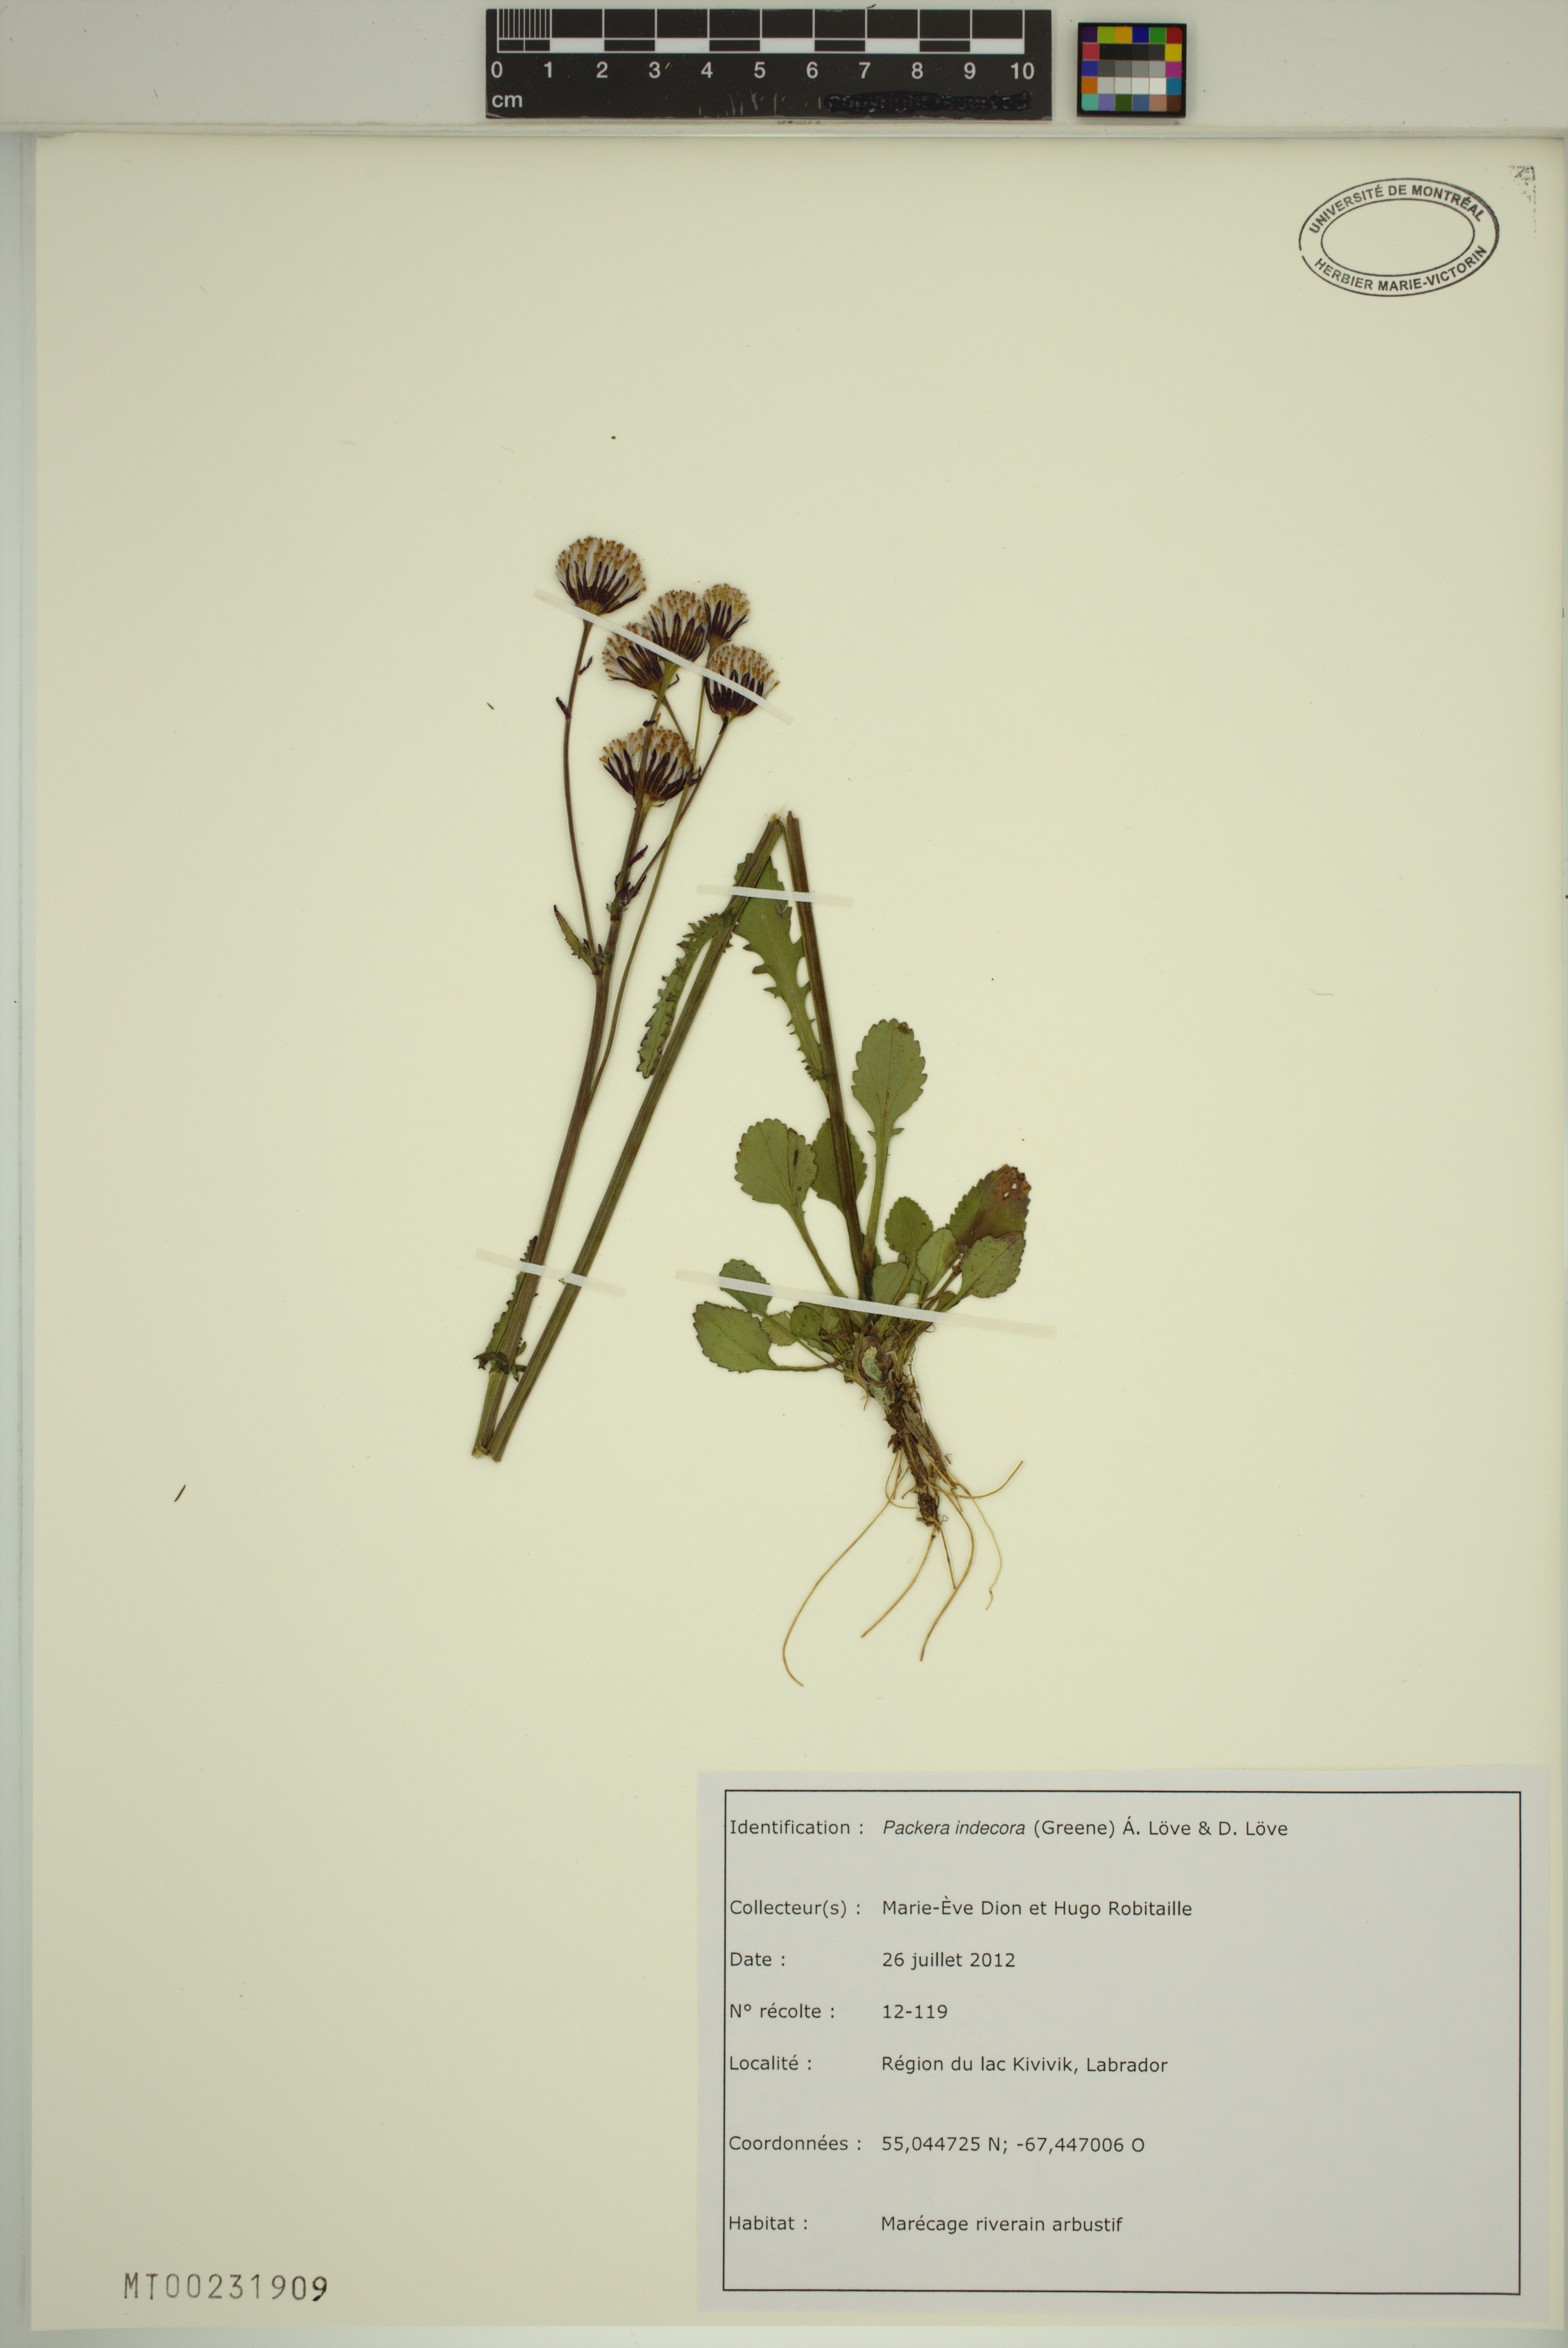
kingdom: Plantae
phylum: Tracheophyta
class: Magnoliopsida
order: Asterales
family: Asteraceae
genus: Packera
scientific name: Packera indecora
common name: Elegant groundsel
